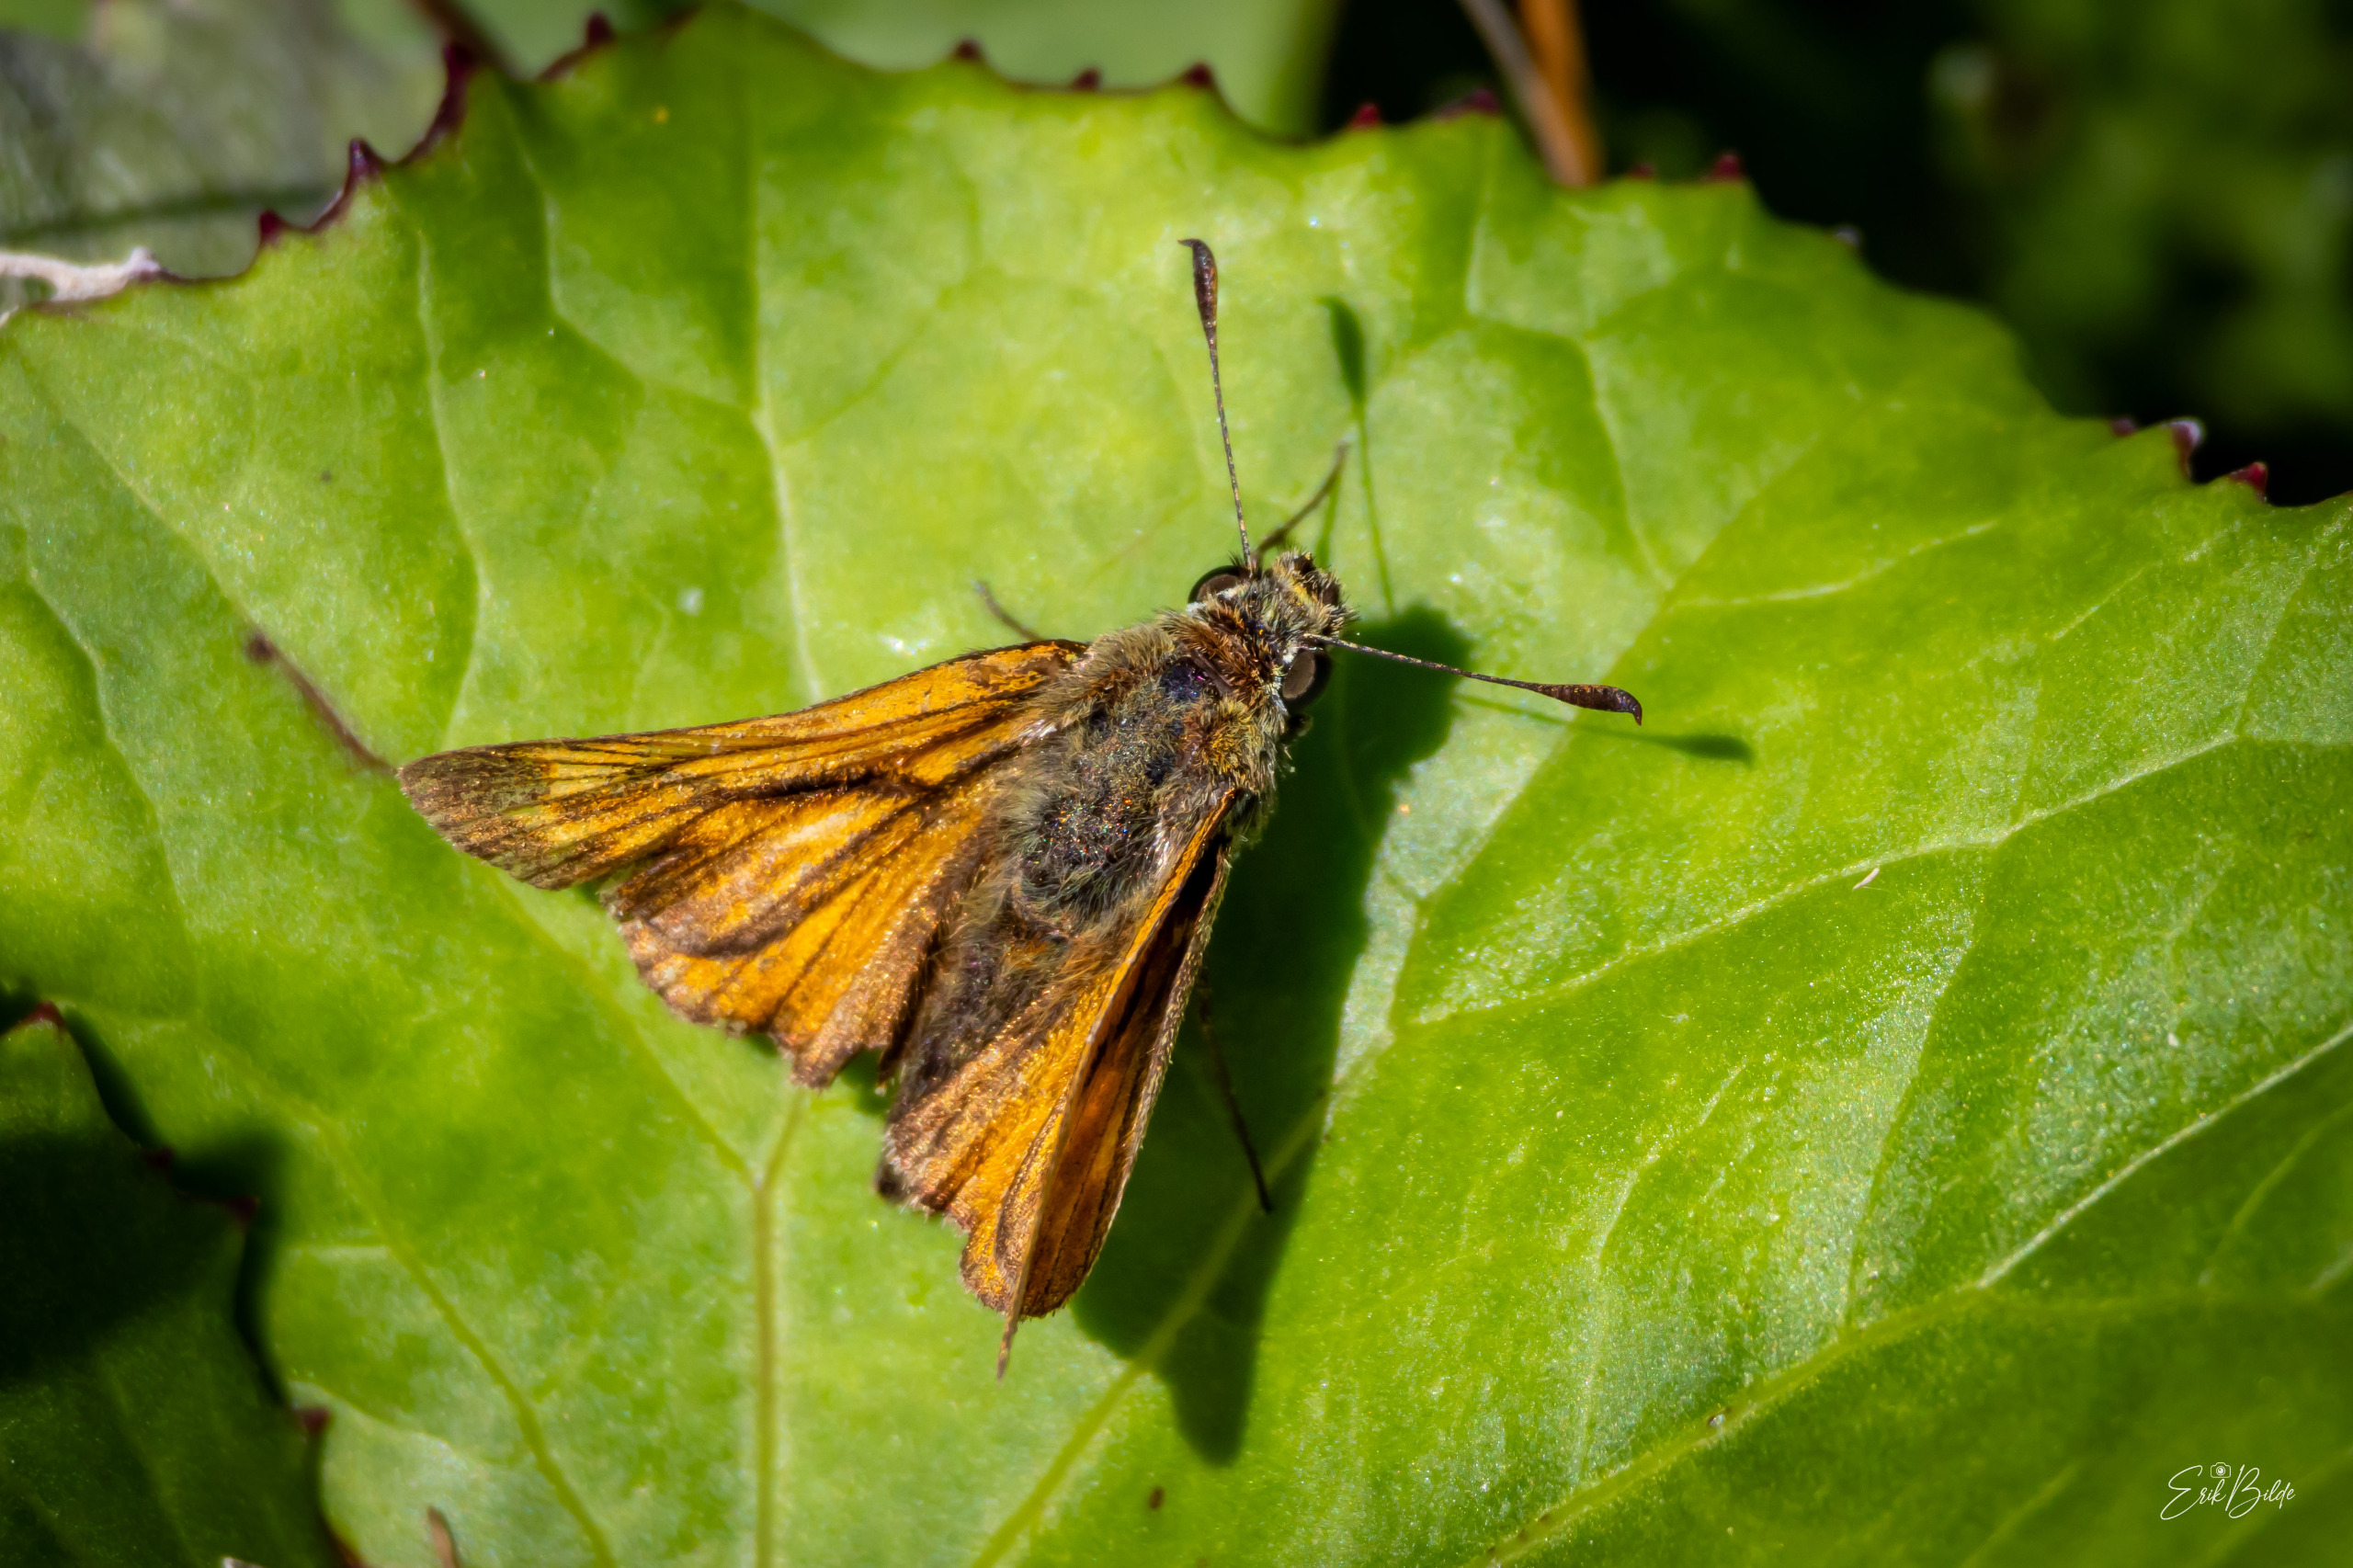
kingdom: Animalia
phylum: Arthropoda
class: Insecta
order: Lepidoptera
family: Hesperiidae
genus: Ochlodes
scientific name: Ochlodes venata
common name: Stor bredpande
